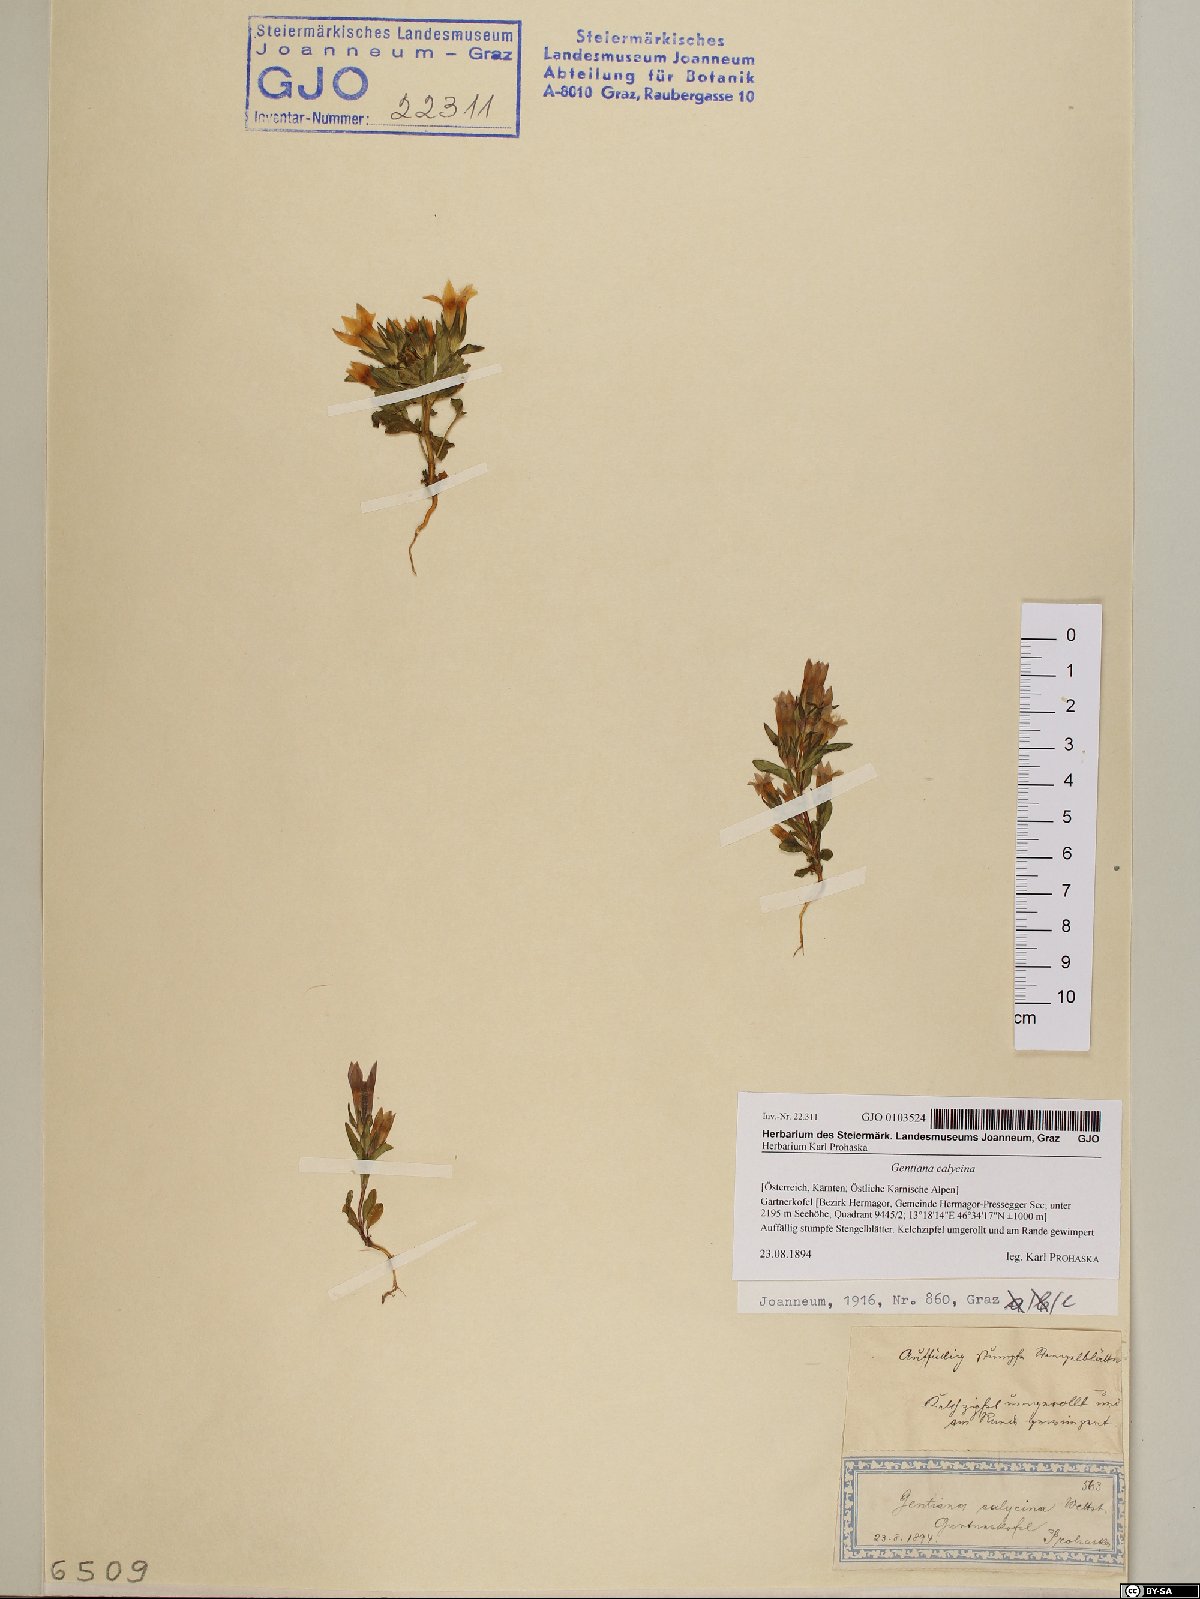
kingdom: Plantae
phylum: Tracheophyta
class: Magnoliopsida
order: Gentianales
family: Gentianaceae
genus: Gentianella
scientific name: Gentianella germanica
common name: Chiltern-gentian
